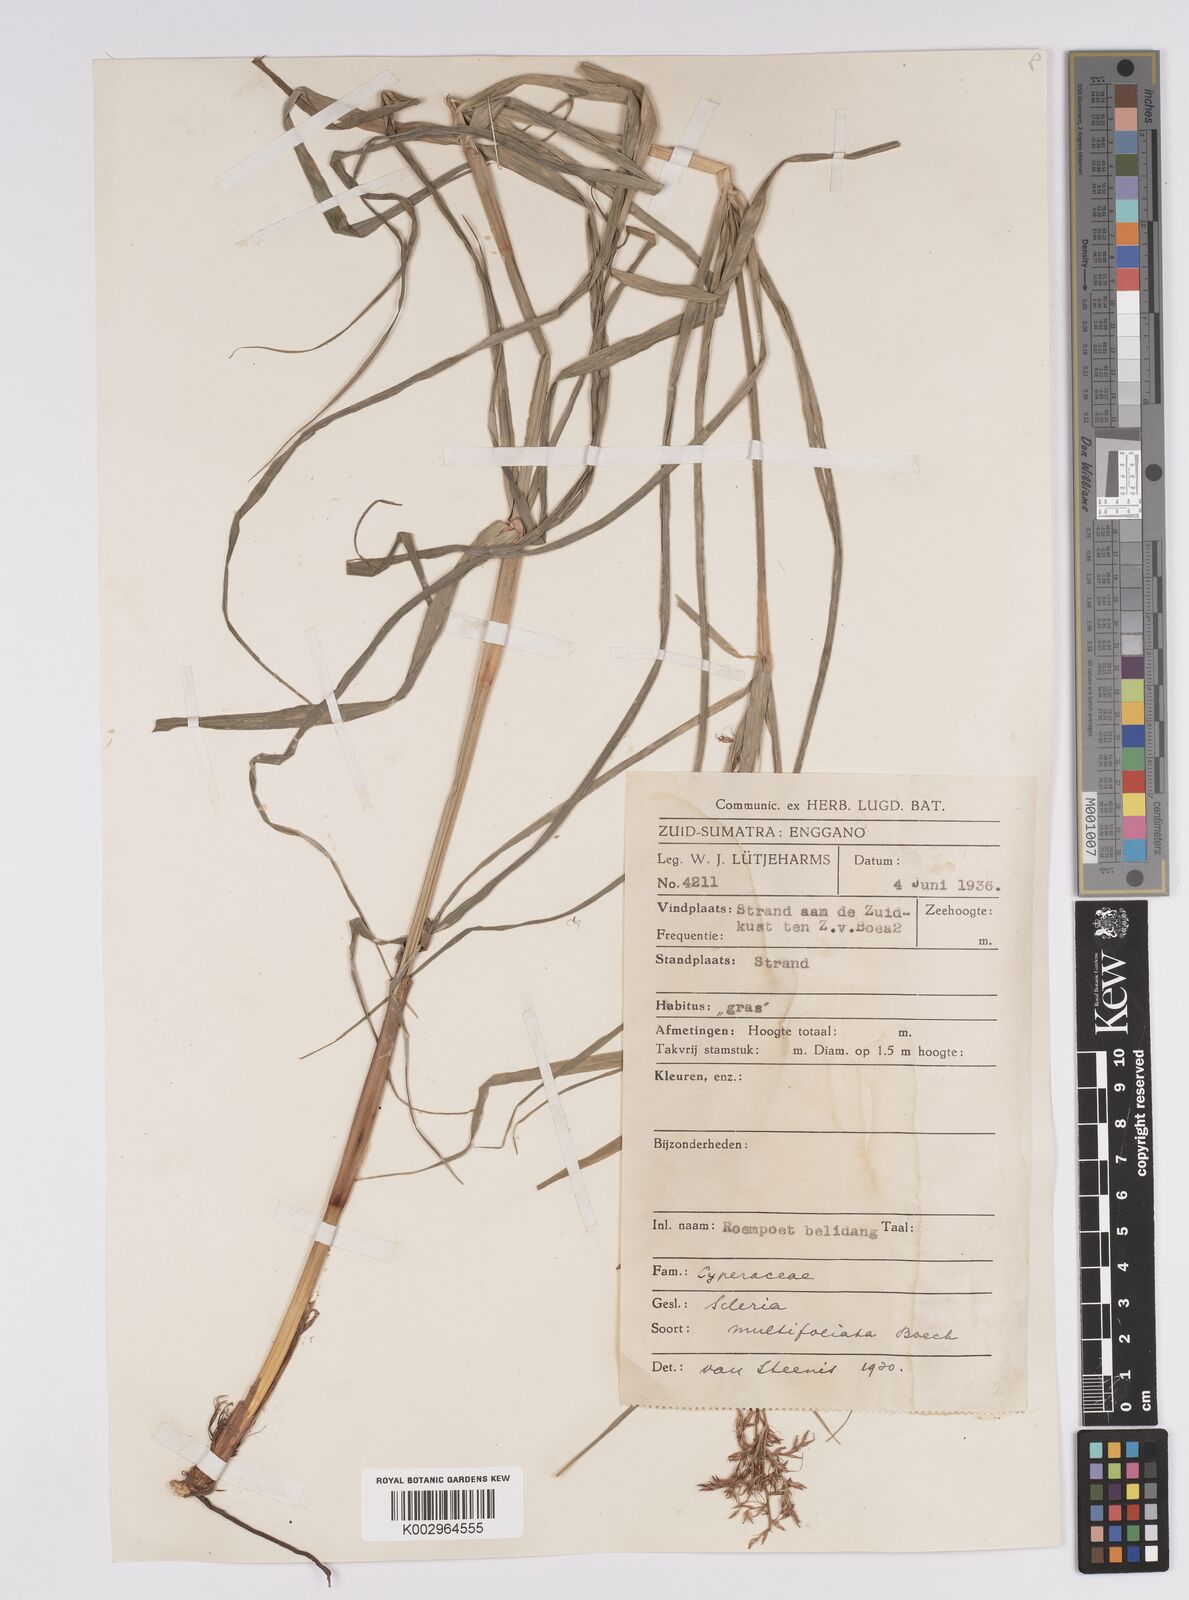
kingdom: Plantae
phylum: Tracheophyta
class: Liliopsida
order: Poales
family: Cyperaceae
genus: Scleria
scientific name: Scleria purpurascens
